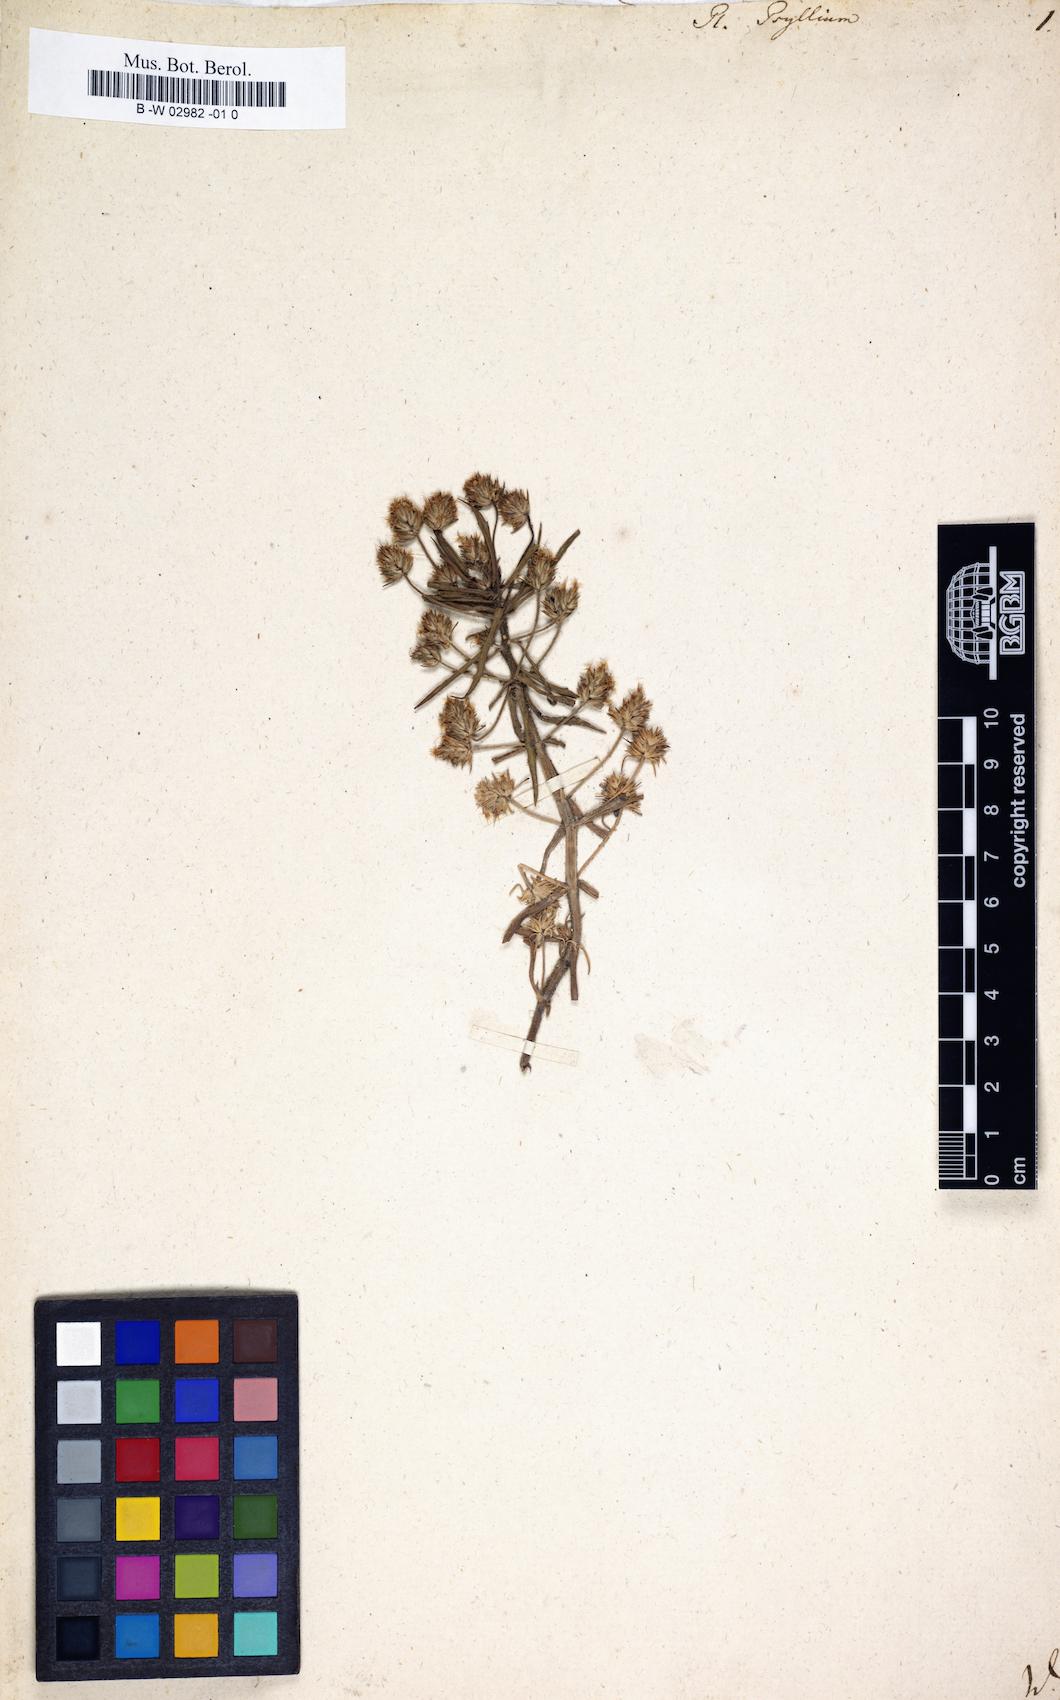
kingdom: Plantae
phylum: Tracheophyta
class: Magnoliopsida
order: Lamiales
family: Plantaginaceae
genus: Plantago
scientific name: Plantago psyllium
